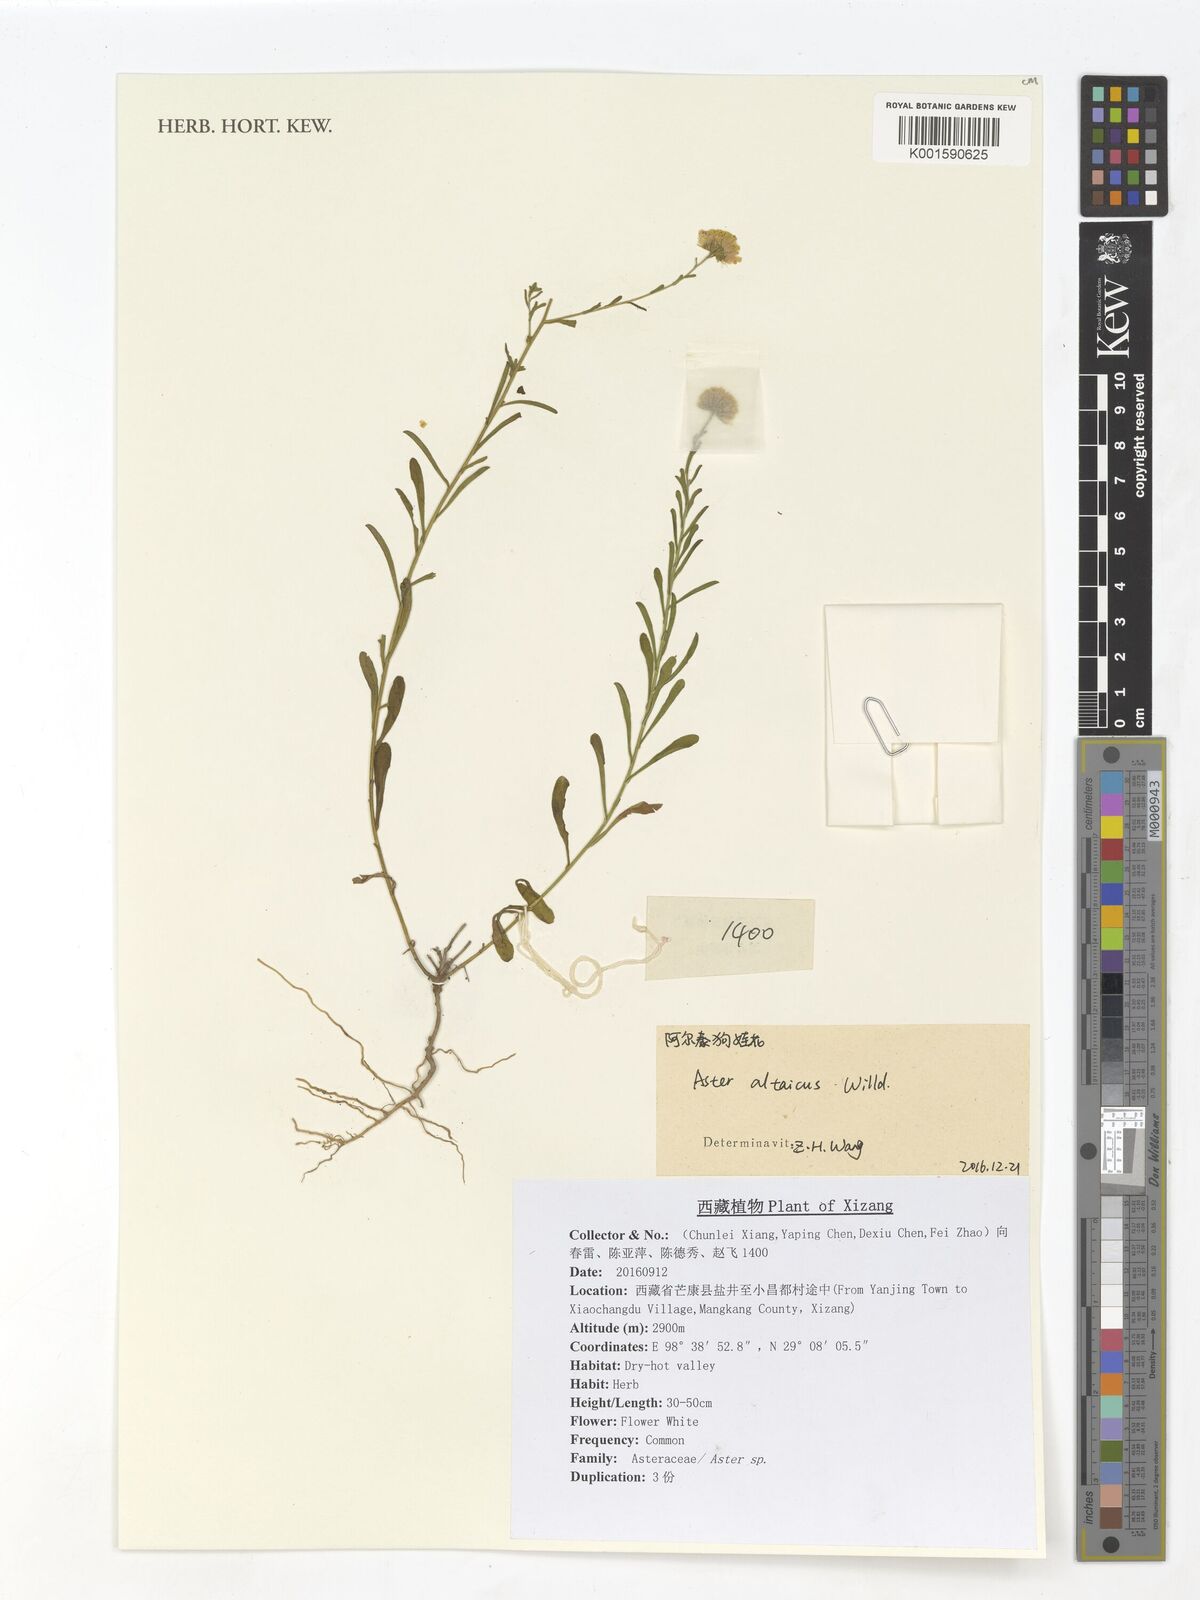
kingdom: Plantae
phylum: Tracheophyta
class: Magnoliopsida
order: Asterales
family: Asteraceae
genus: Heteropappus
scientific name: Heteropappus altaicus
